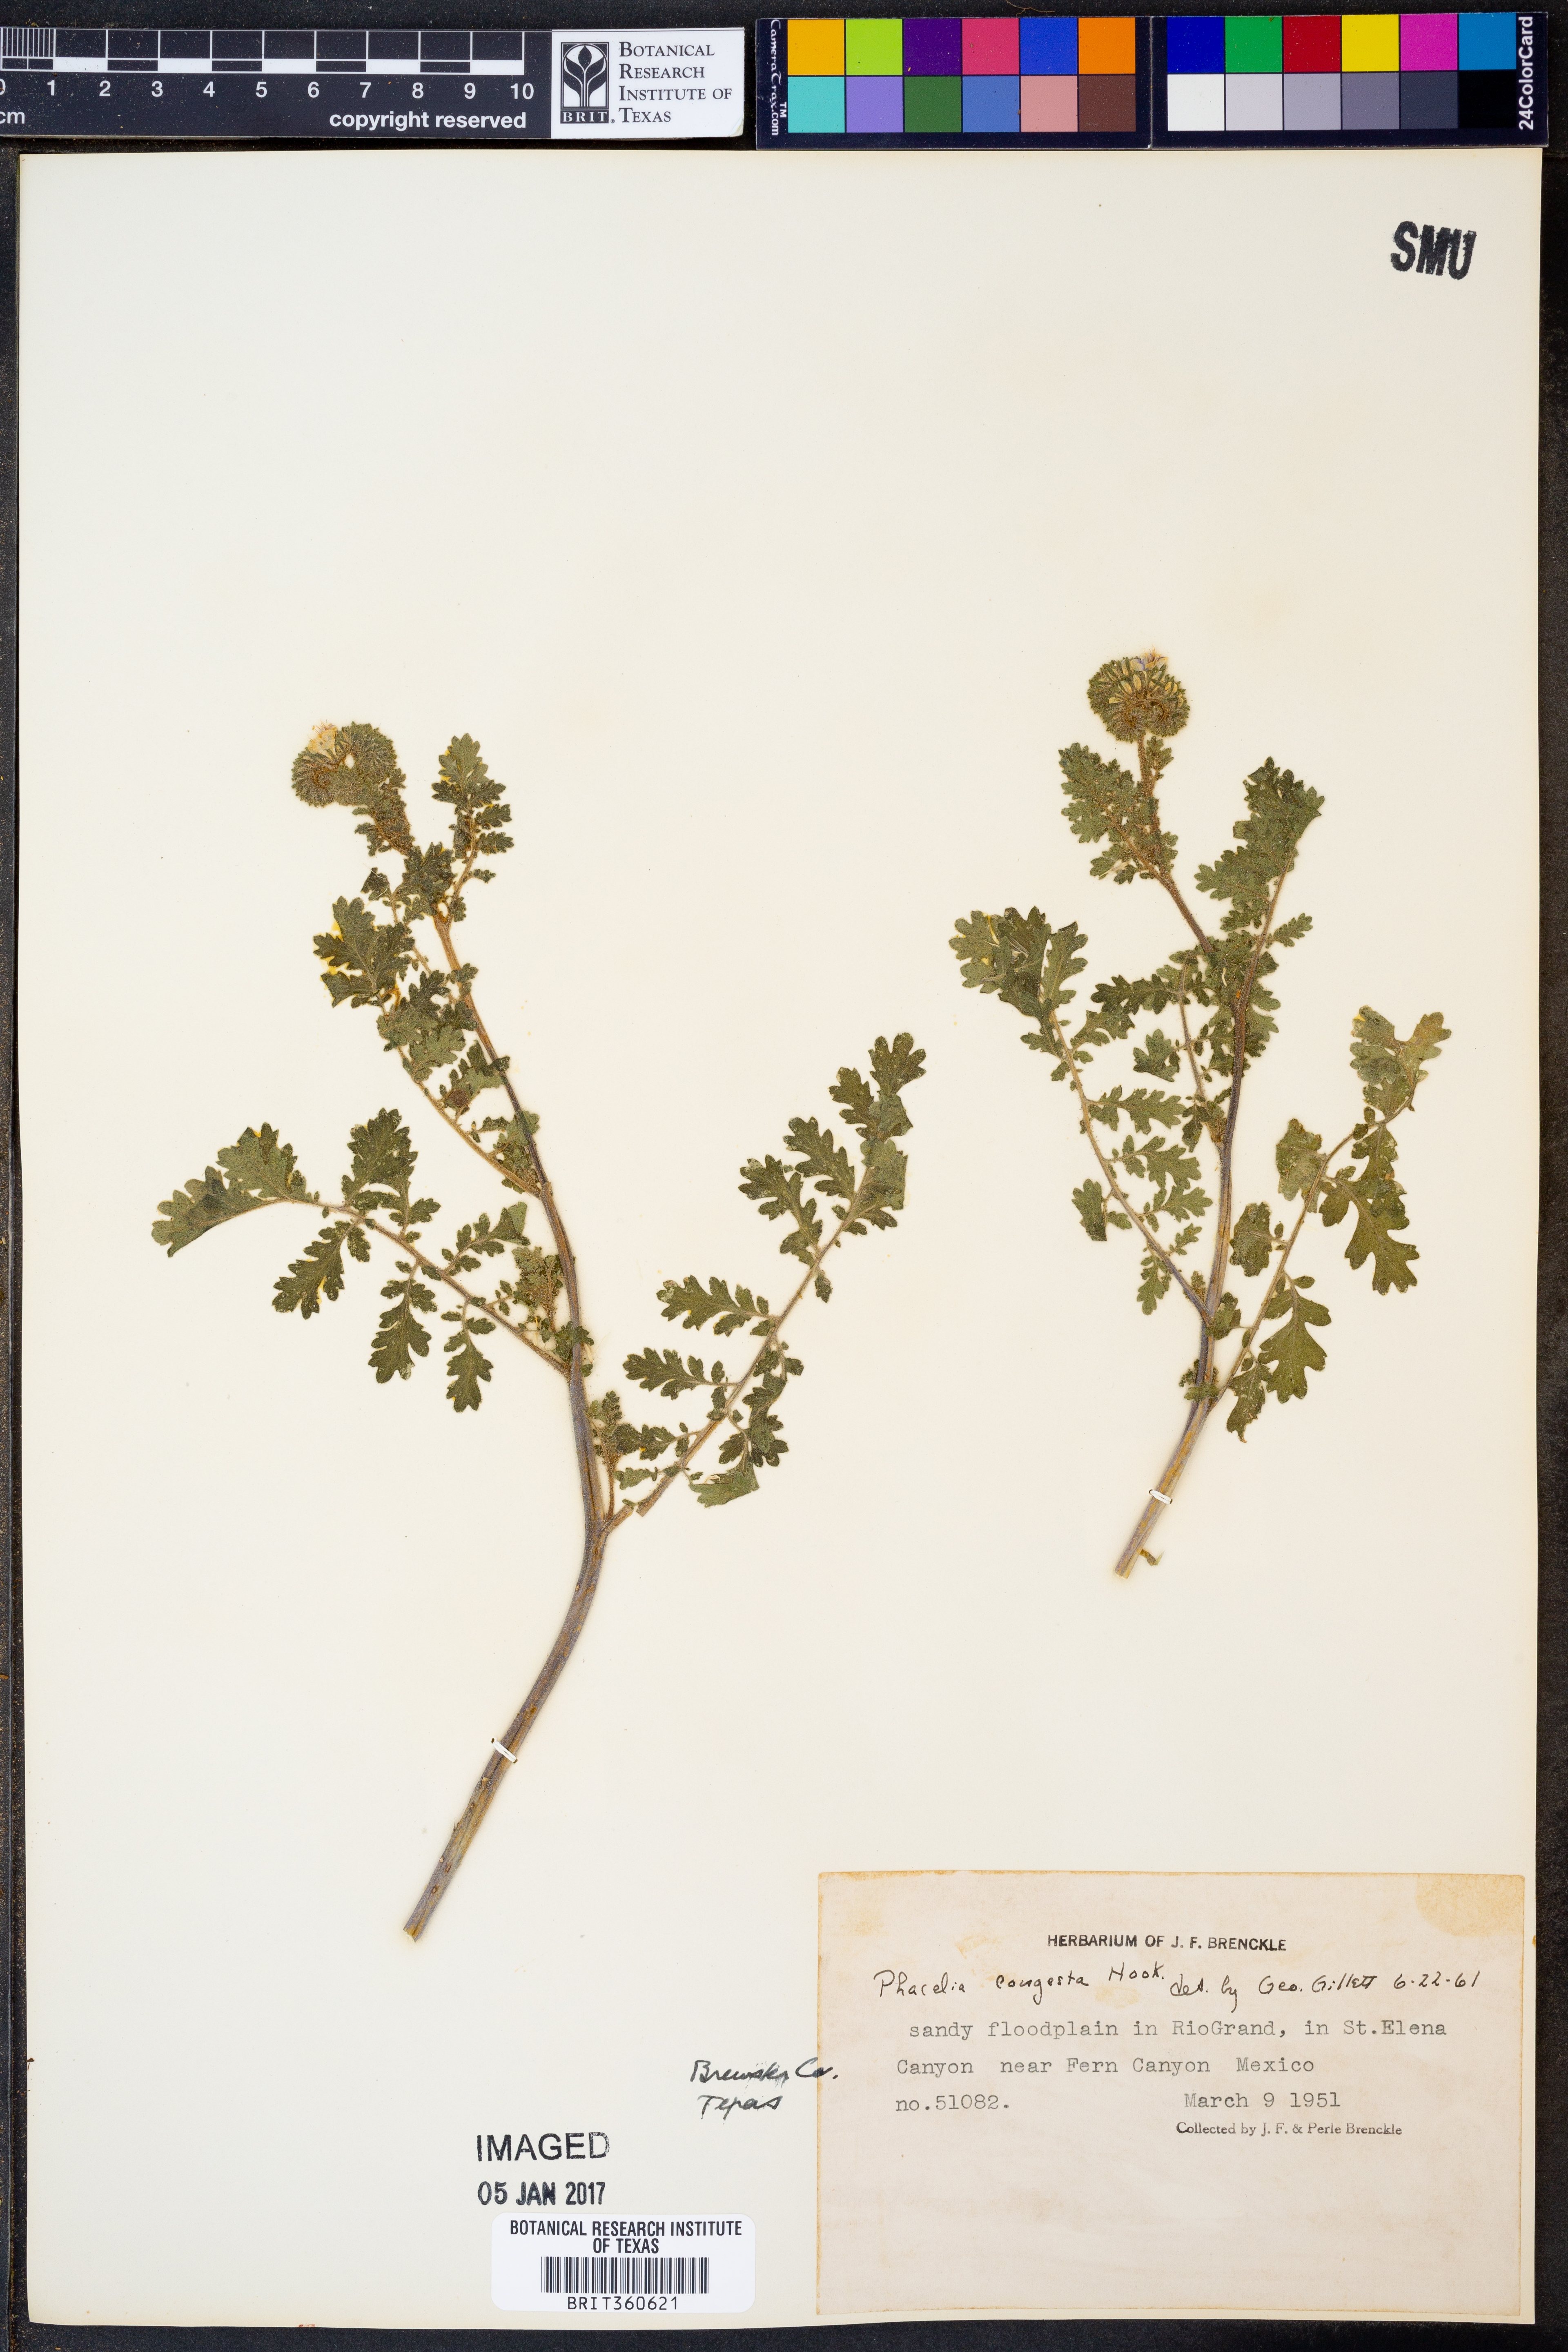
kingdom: Plantae
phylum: Tracheophyta
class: Magnoliopsida
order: Boraginales
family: Hydrophyllaceae
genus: Phacelia
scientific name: Phacelia congesta
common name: Blue curls
